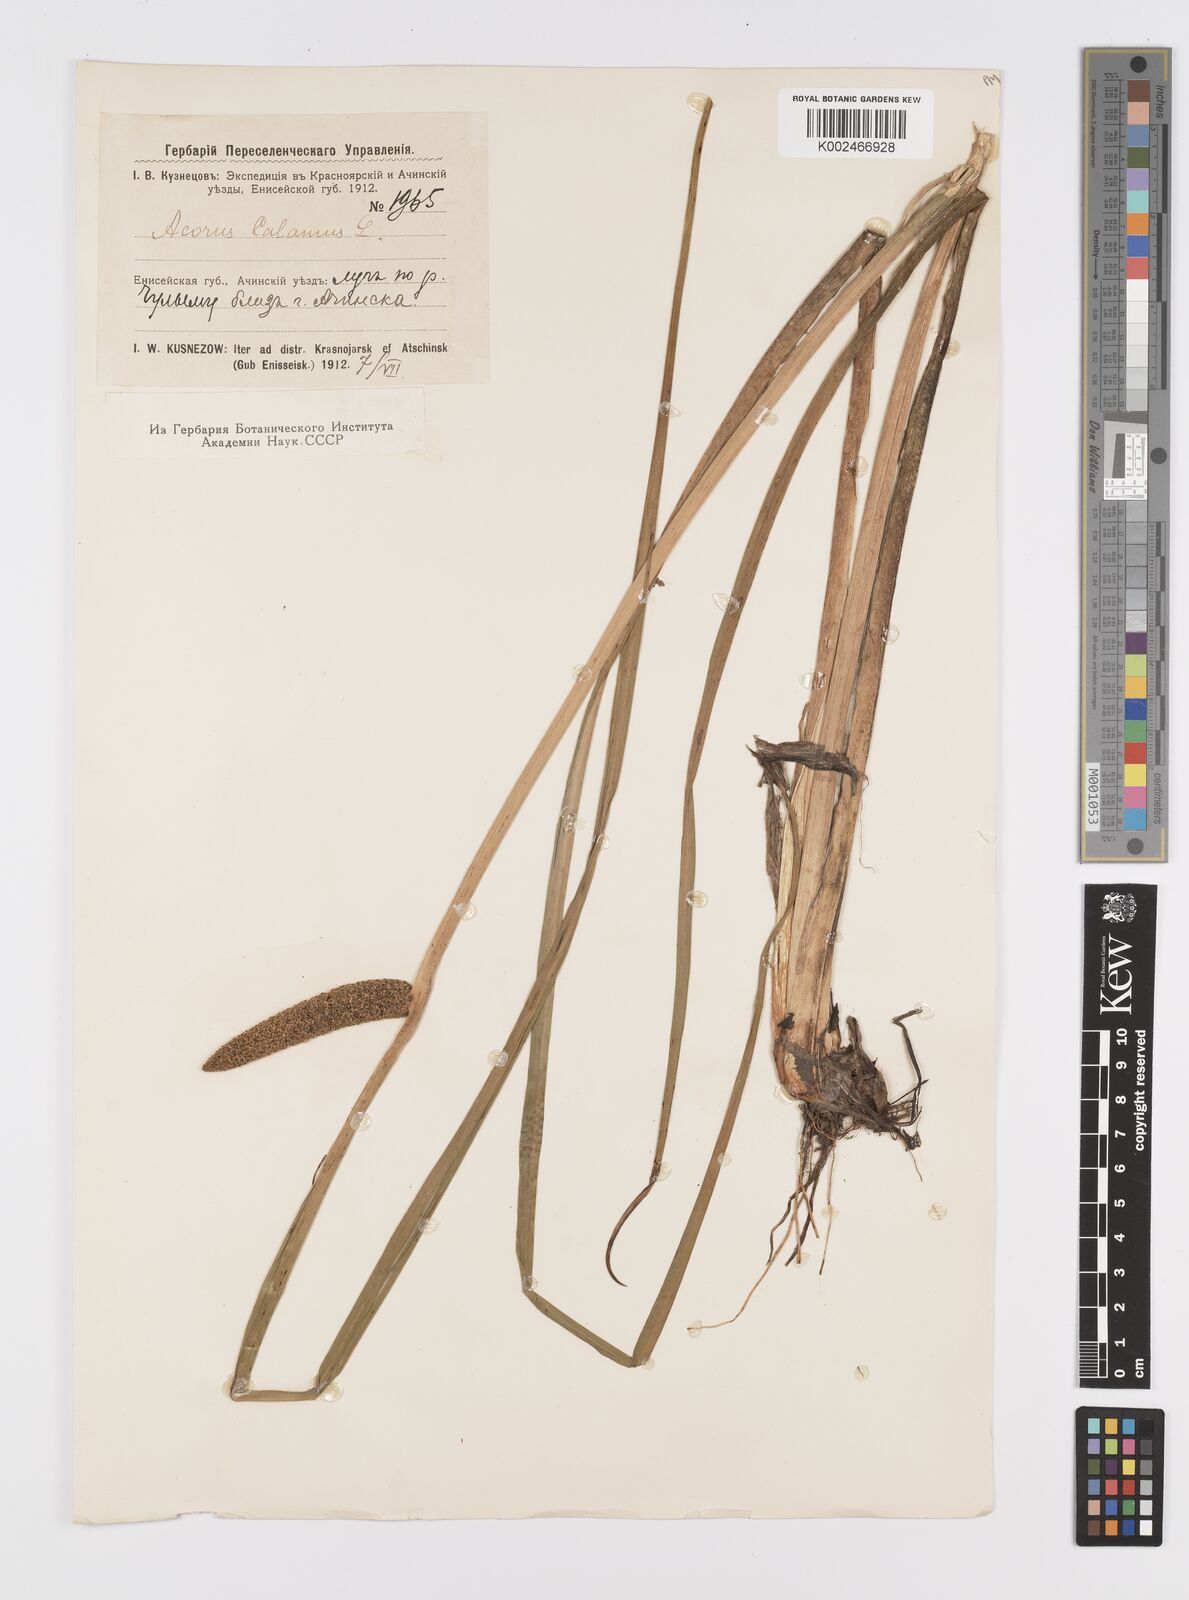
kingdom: Plantae
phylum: Tracheophyta
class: Liliopsida
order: Acorales
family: Acoraceae
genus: Acorus
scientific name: Acorus calamus
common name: Sweet-flag
